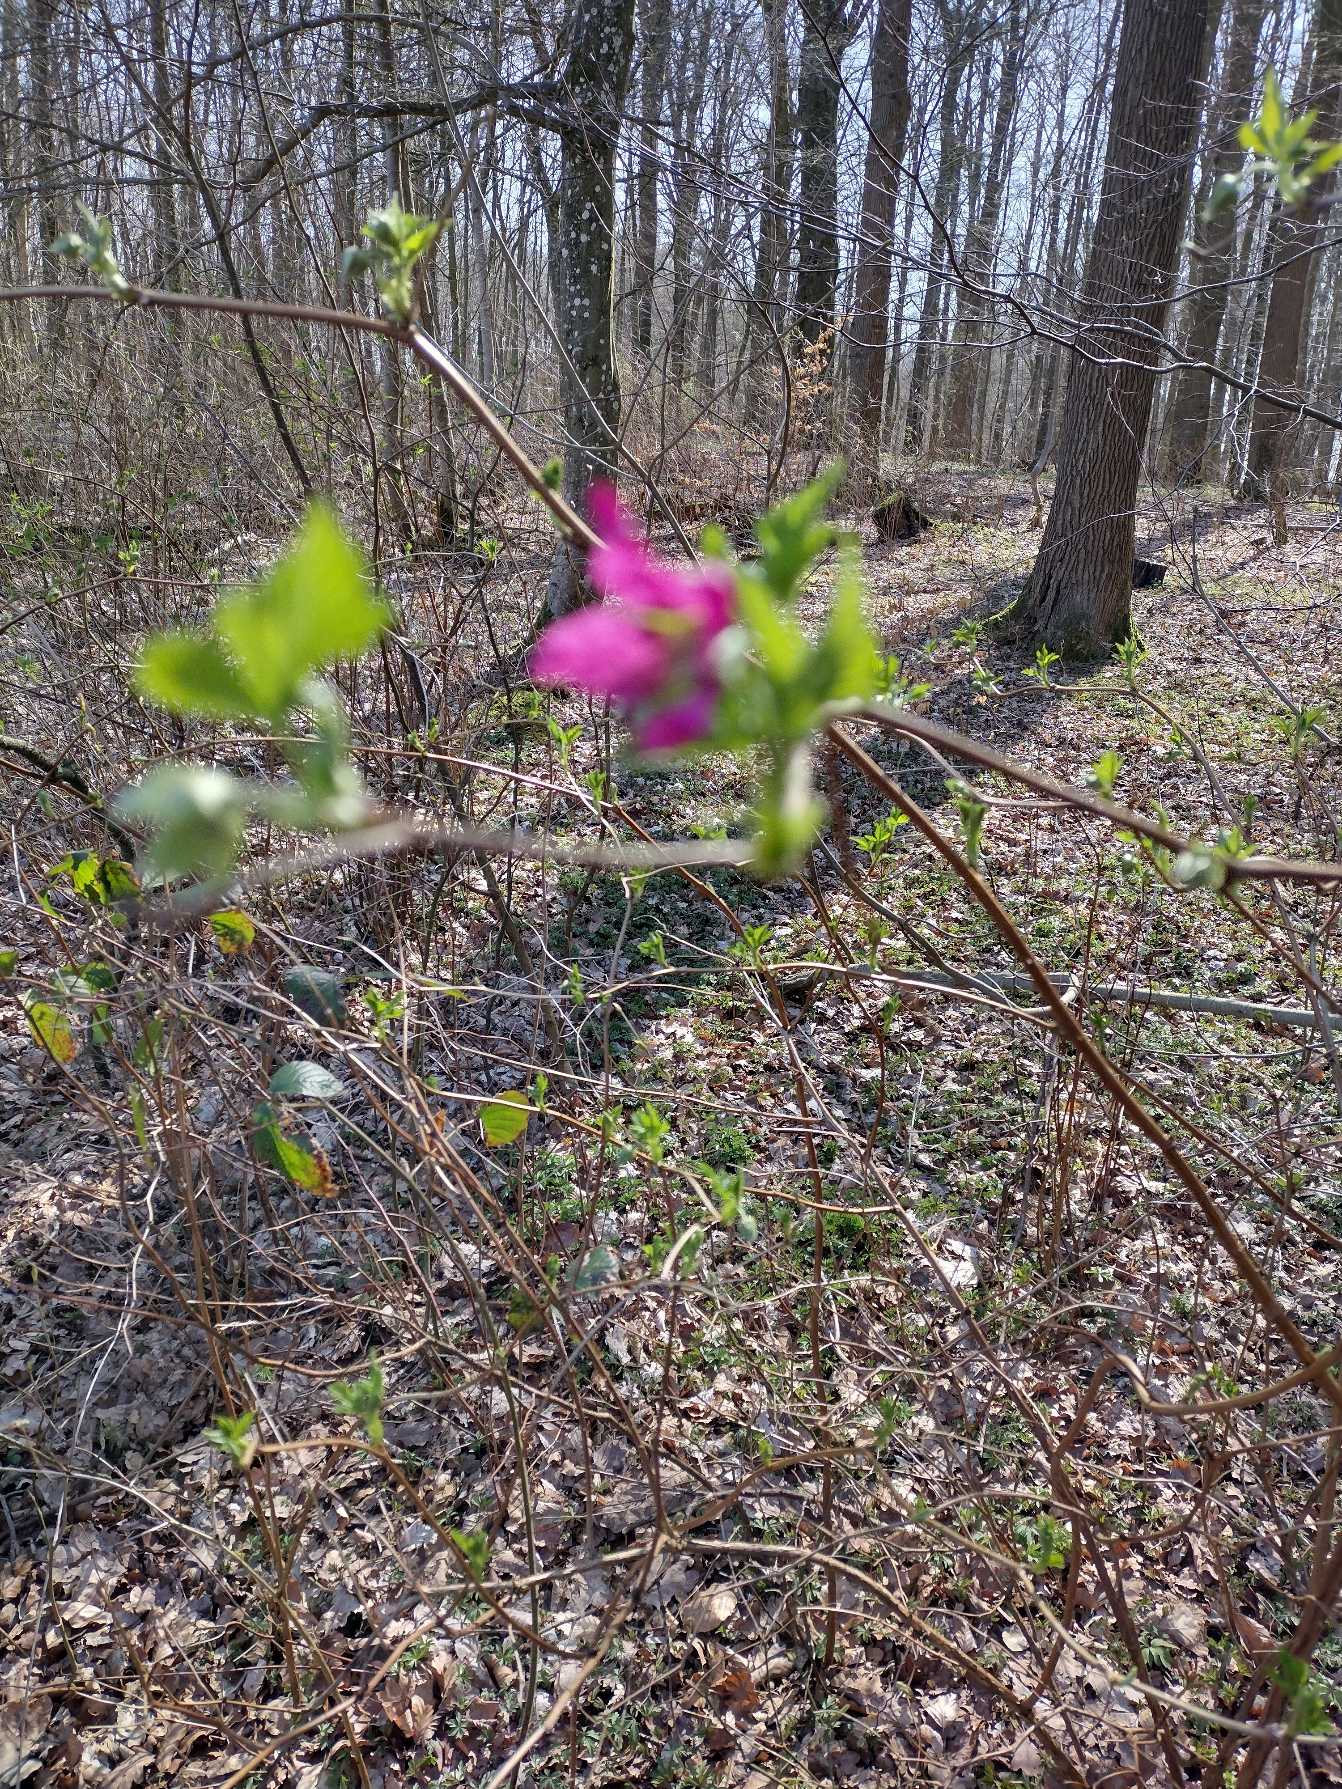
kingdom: Plantae
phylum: Tracheophyta
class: Magnoliopsida
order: Rosales
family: Rosaceae
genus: Rubus
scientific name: Rubus spectabilis
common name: Laksebær
